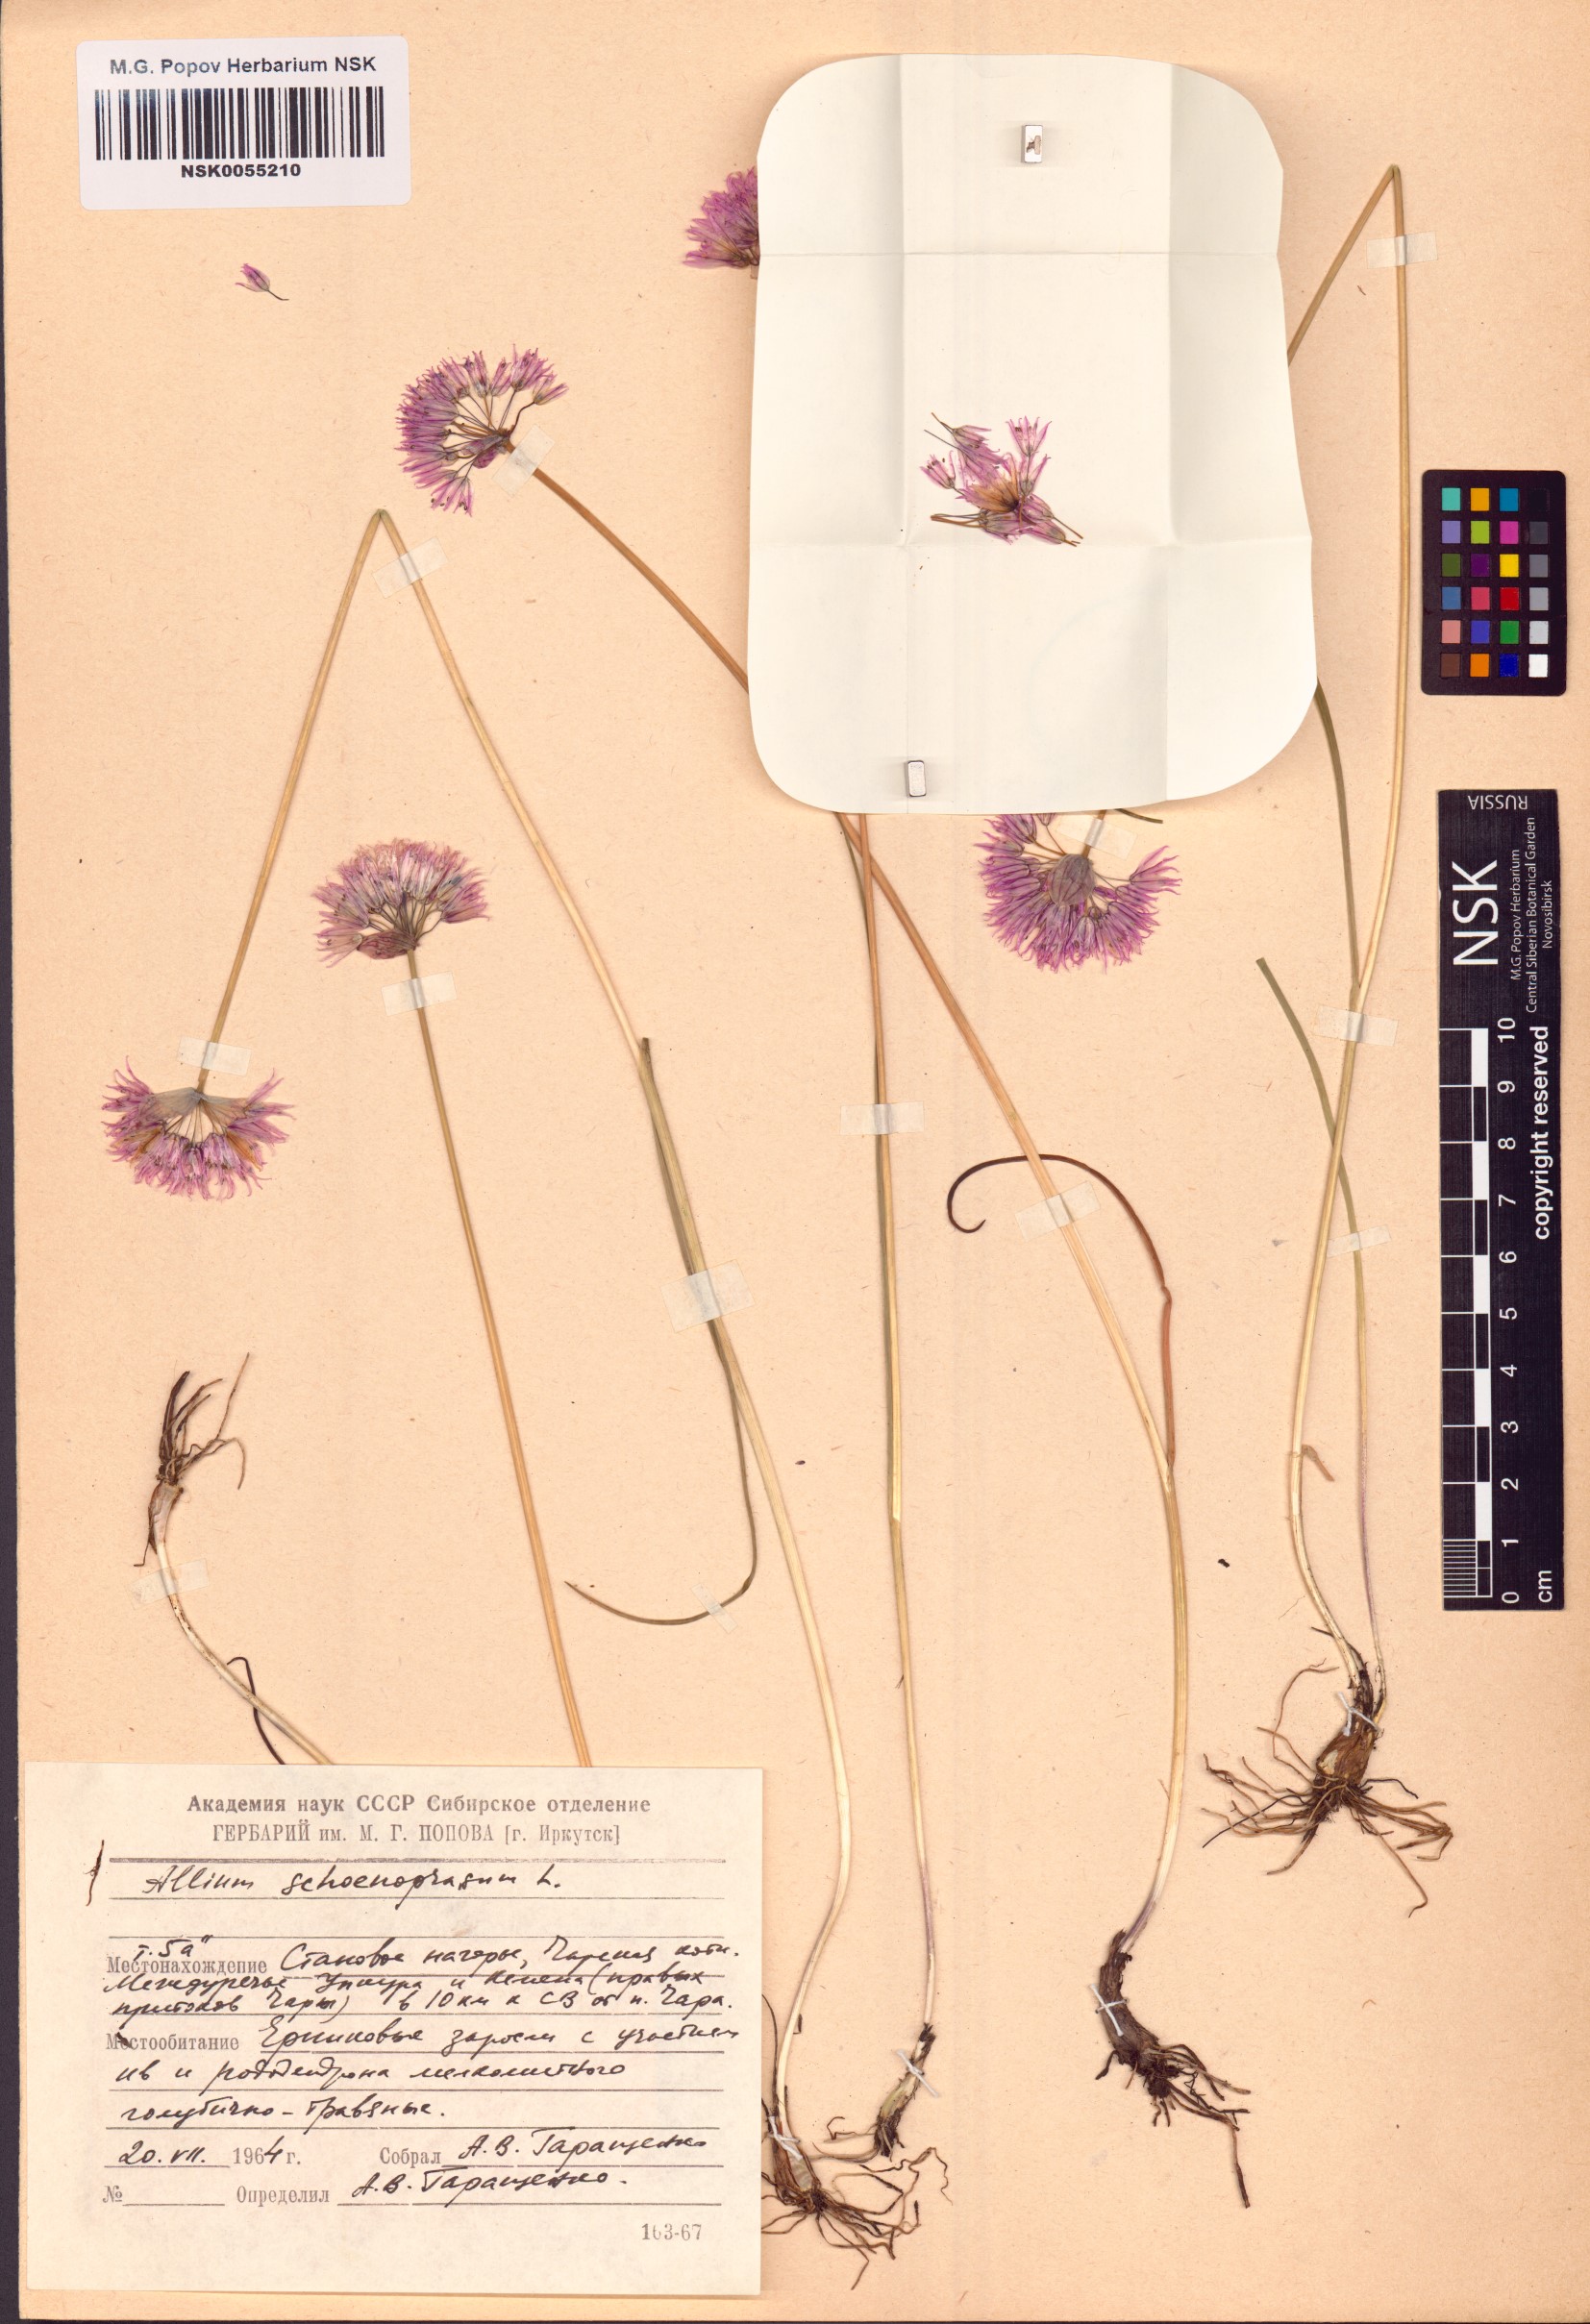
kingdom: Plantae
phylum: Tracheophyta
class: Liliopsida
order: Asparagales
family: Amaryllidaceae
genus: Allium
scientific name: Allium schoenoprasum
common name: Chives
